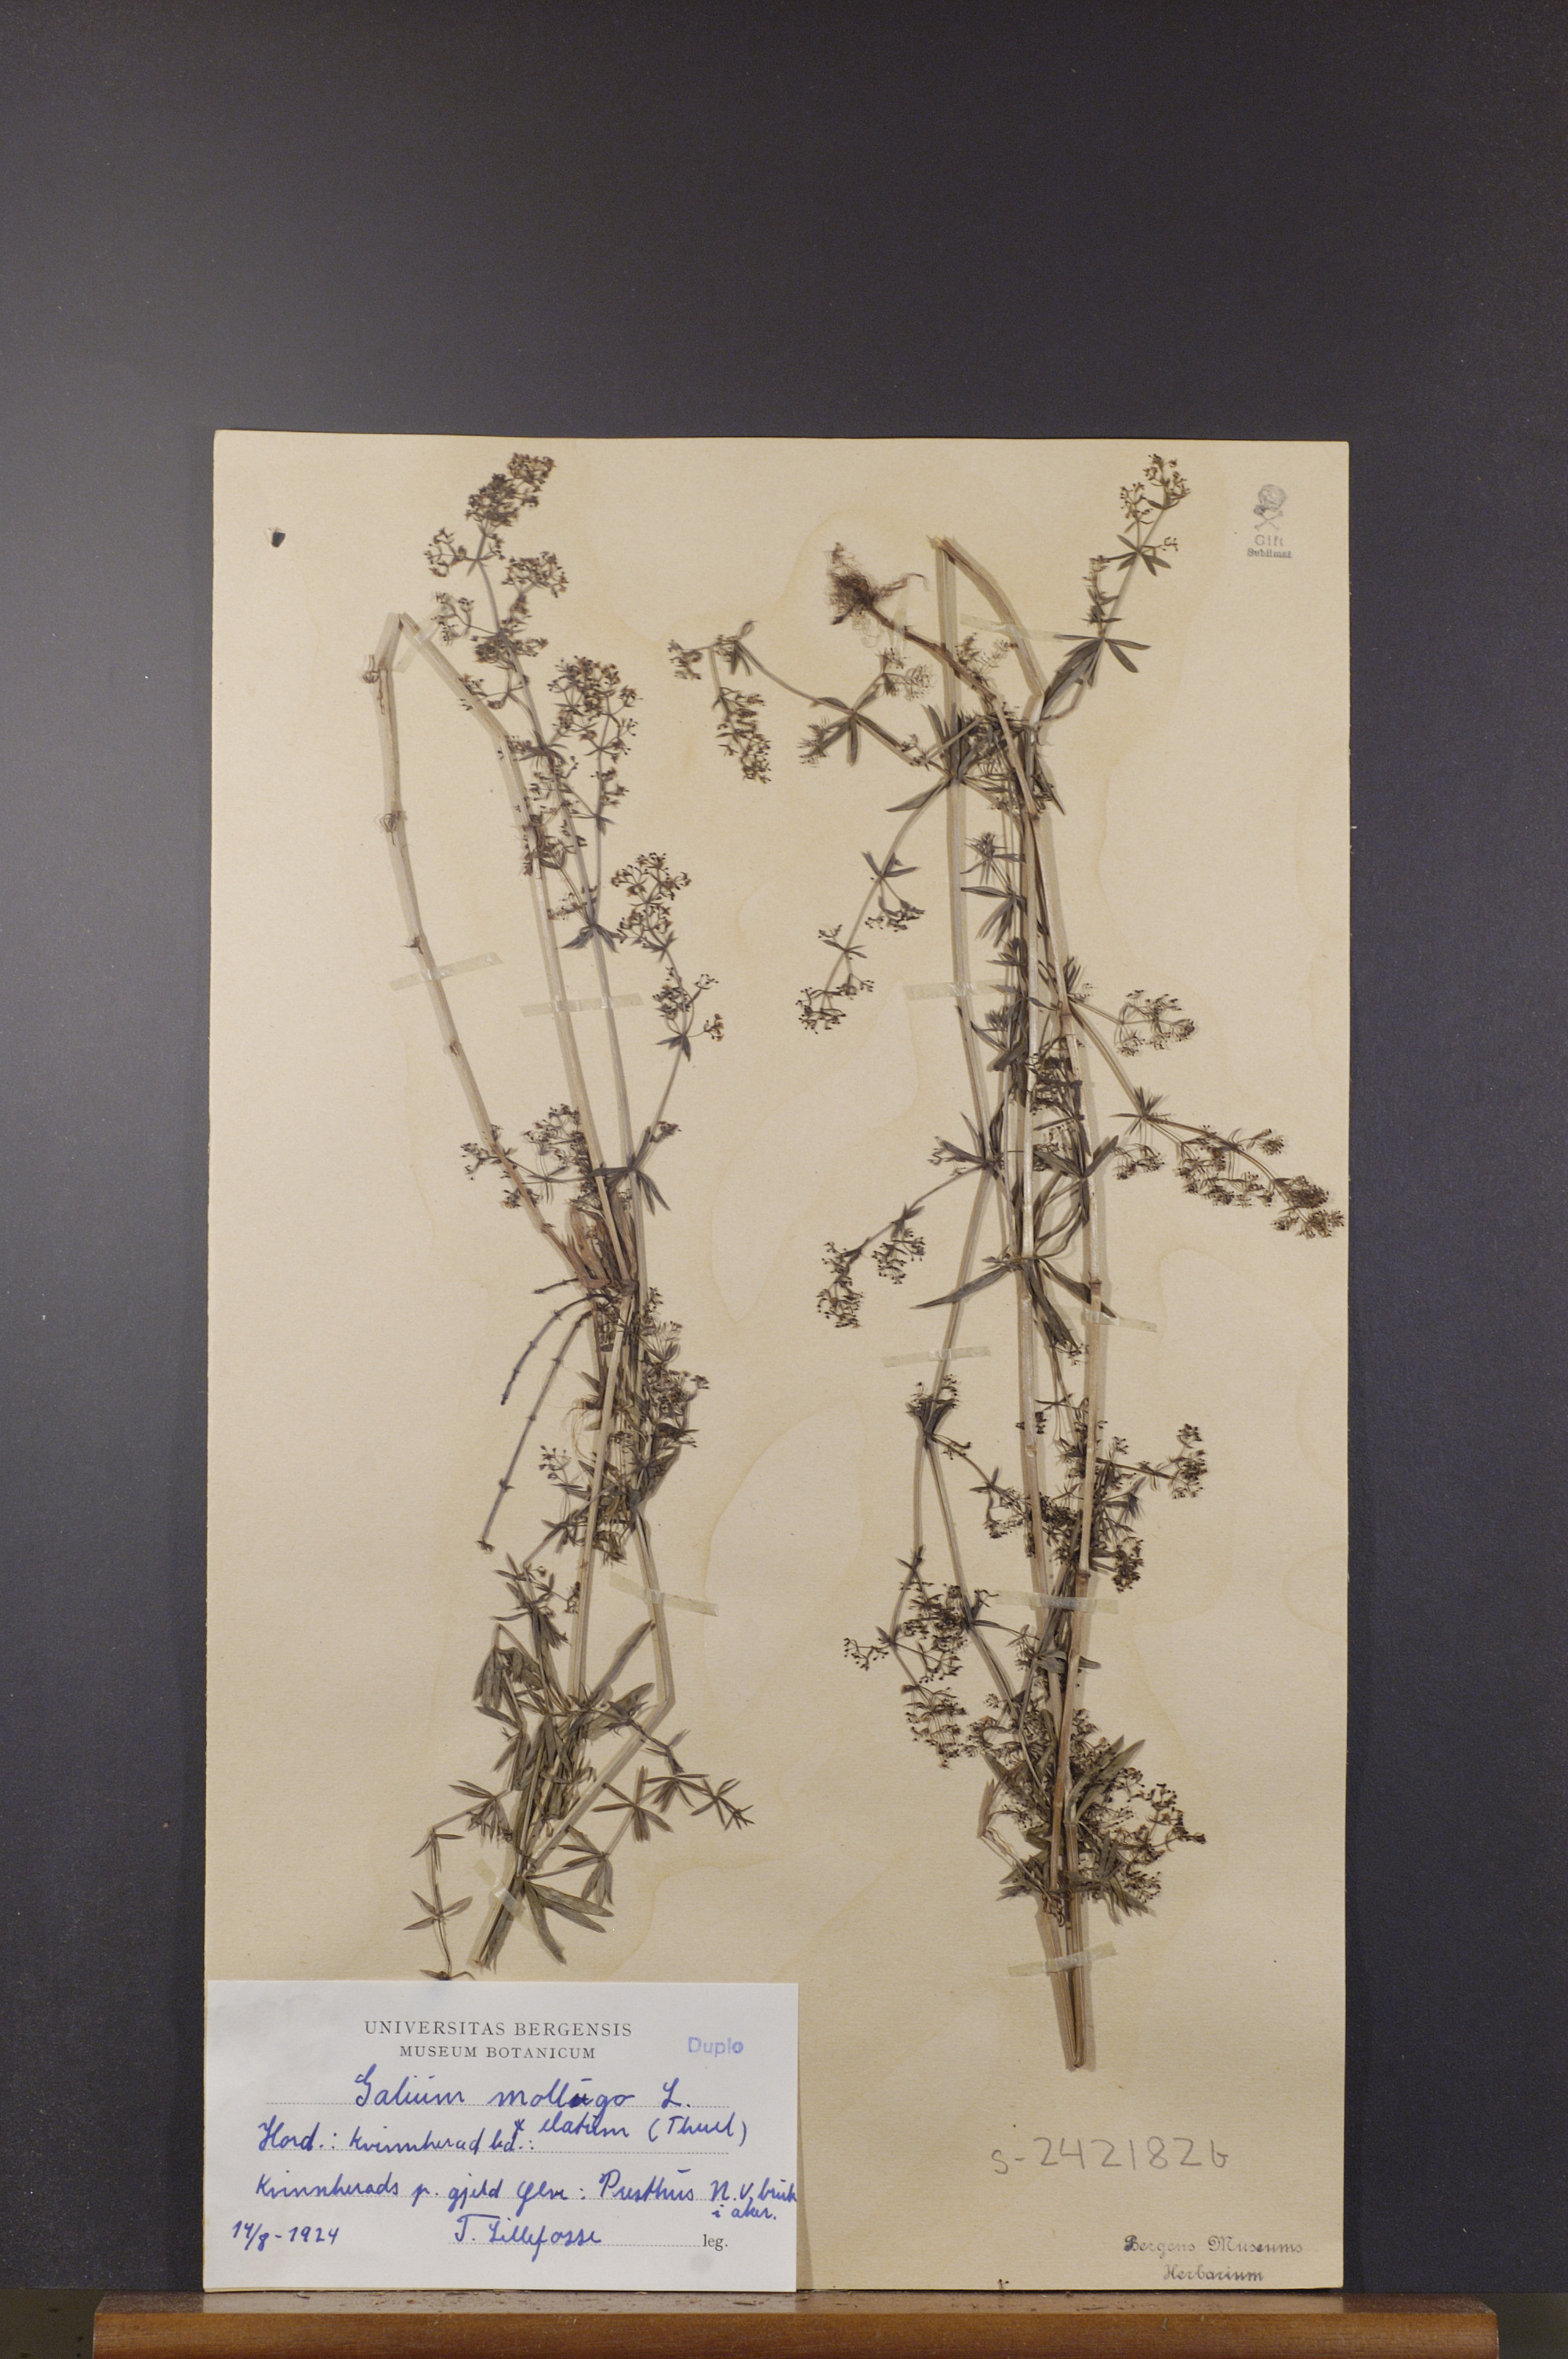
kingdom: Plantae
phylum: Tracheophyta
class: Magnoliopsida
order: Gentianales
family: Rubiaceae
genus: Galium
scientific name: Galium mollugo
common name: Hedge bedstraw
